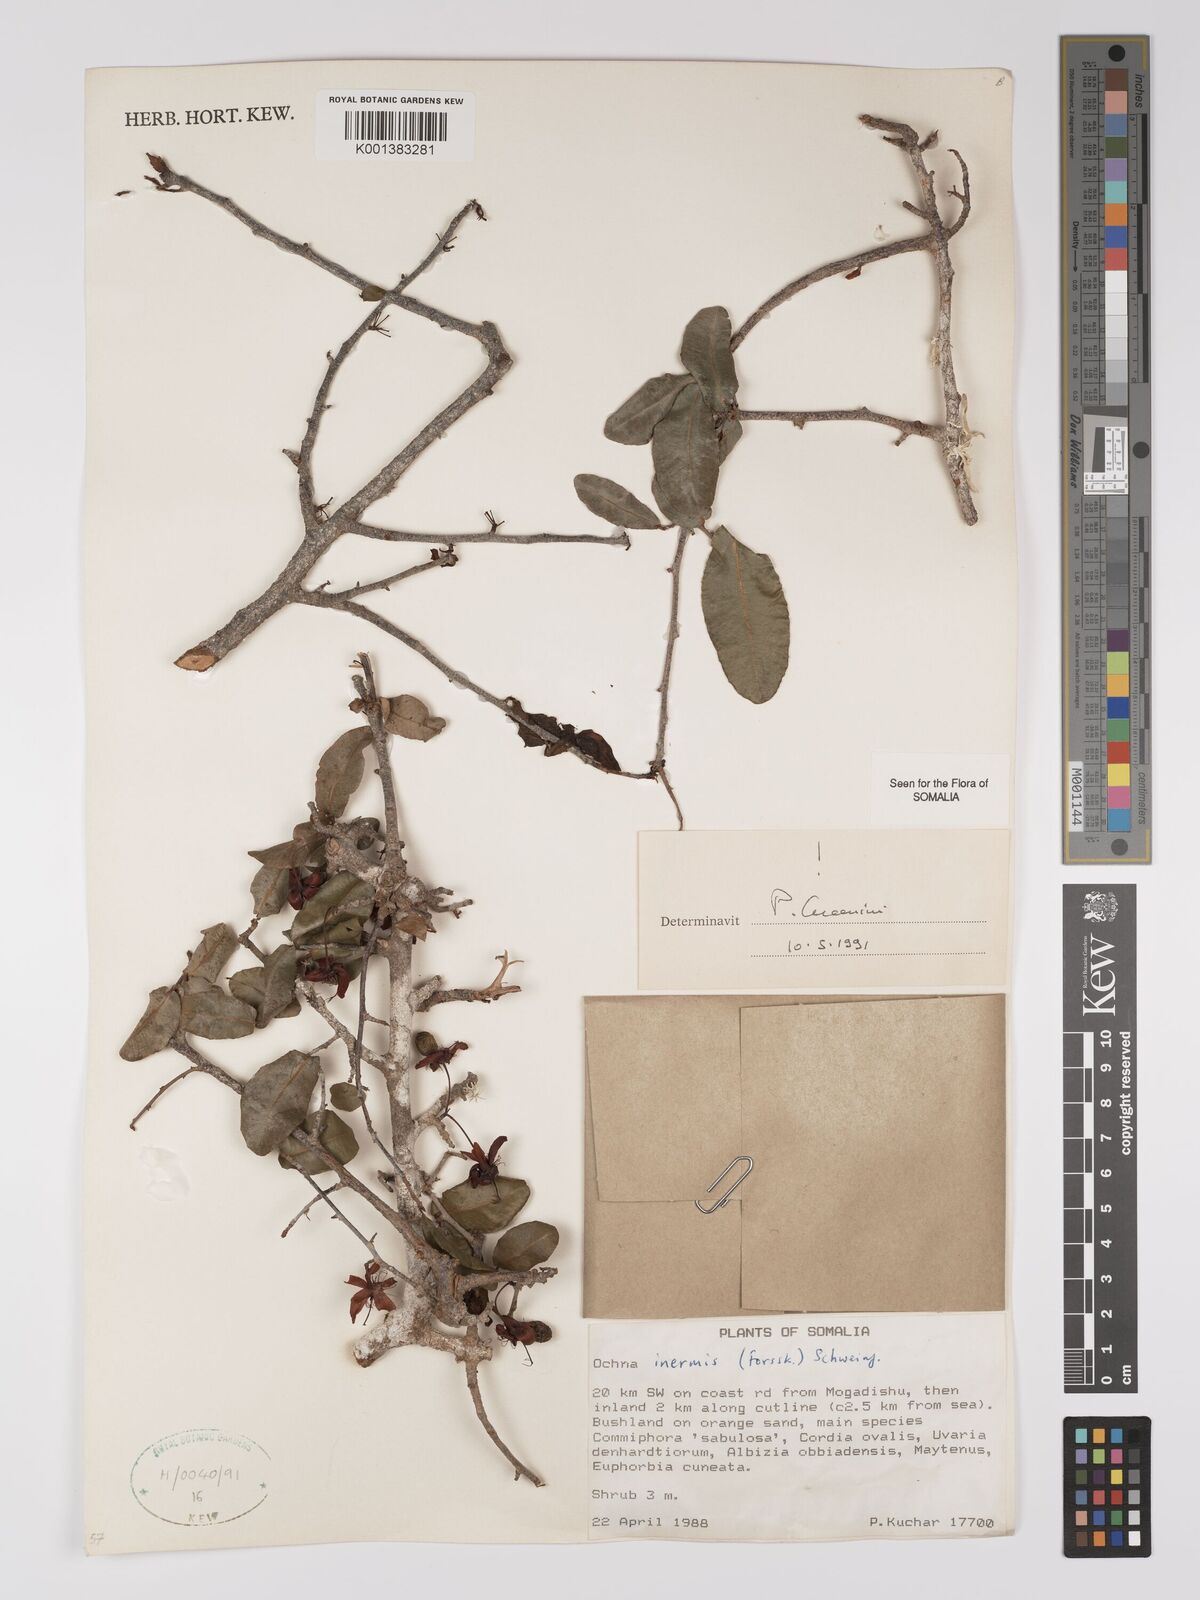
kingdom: Plantae
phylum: Tracheophyta
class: Magnoliopsida
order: Malpighiales
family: Ochnaceae
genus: Ochna
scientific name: Ochna inermis
